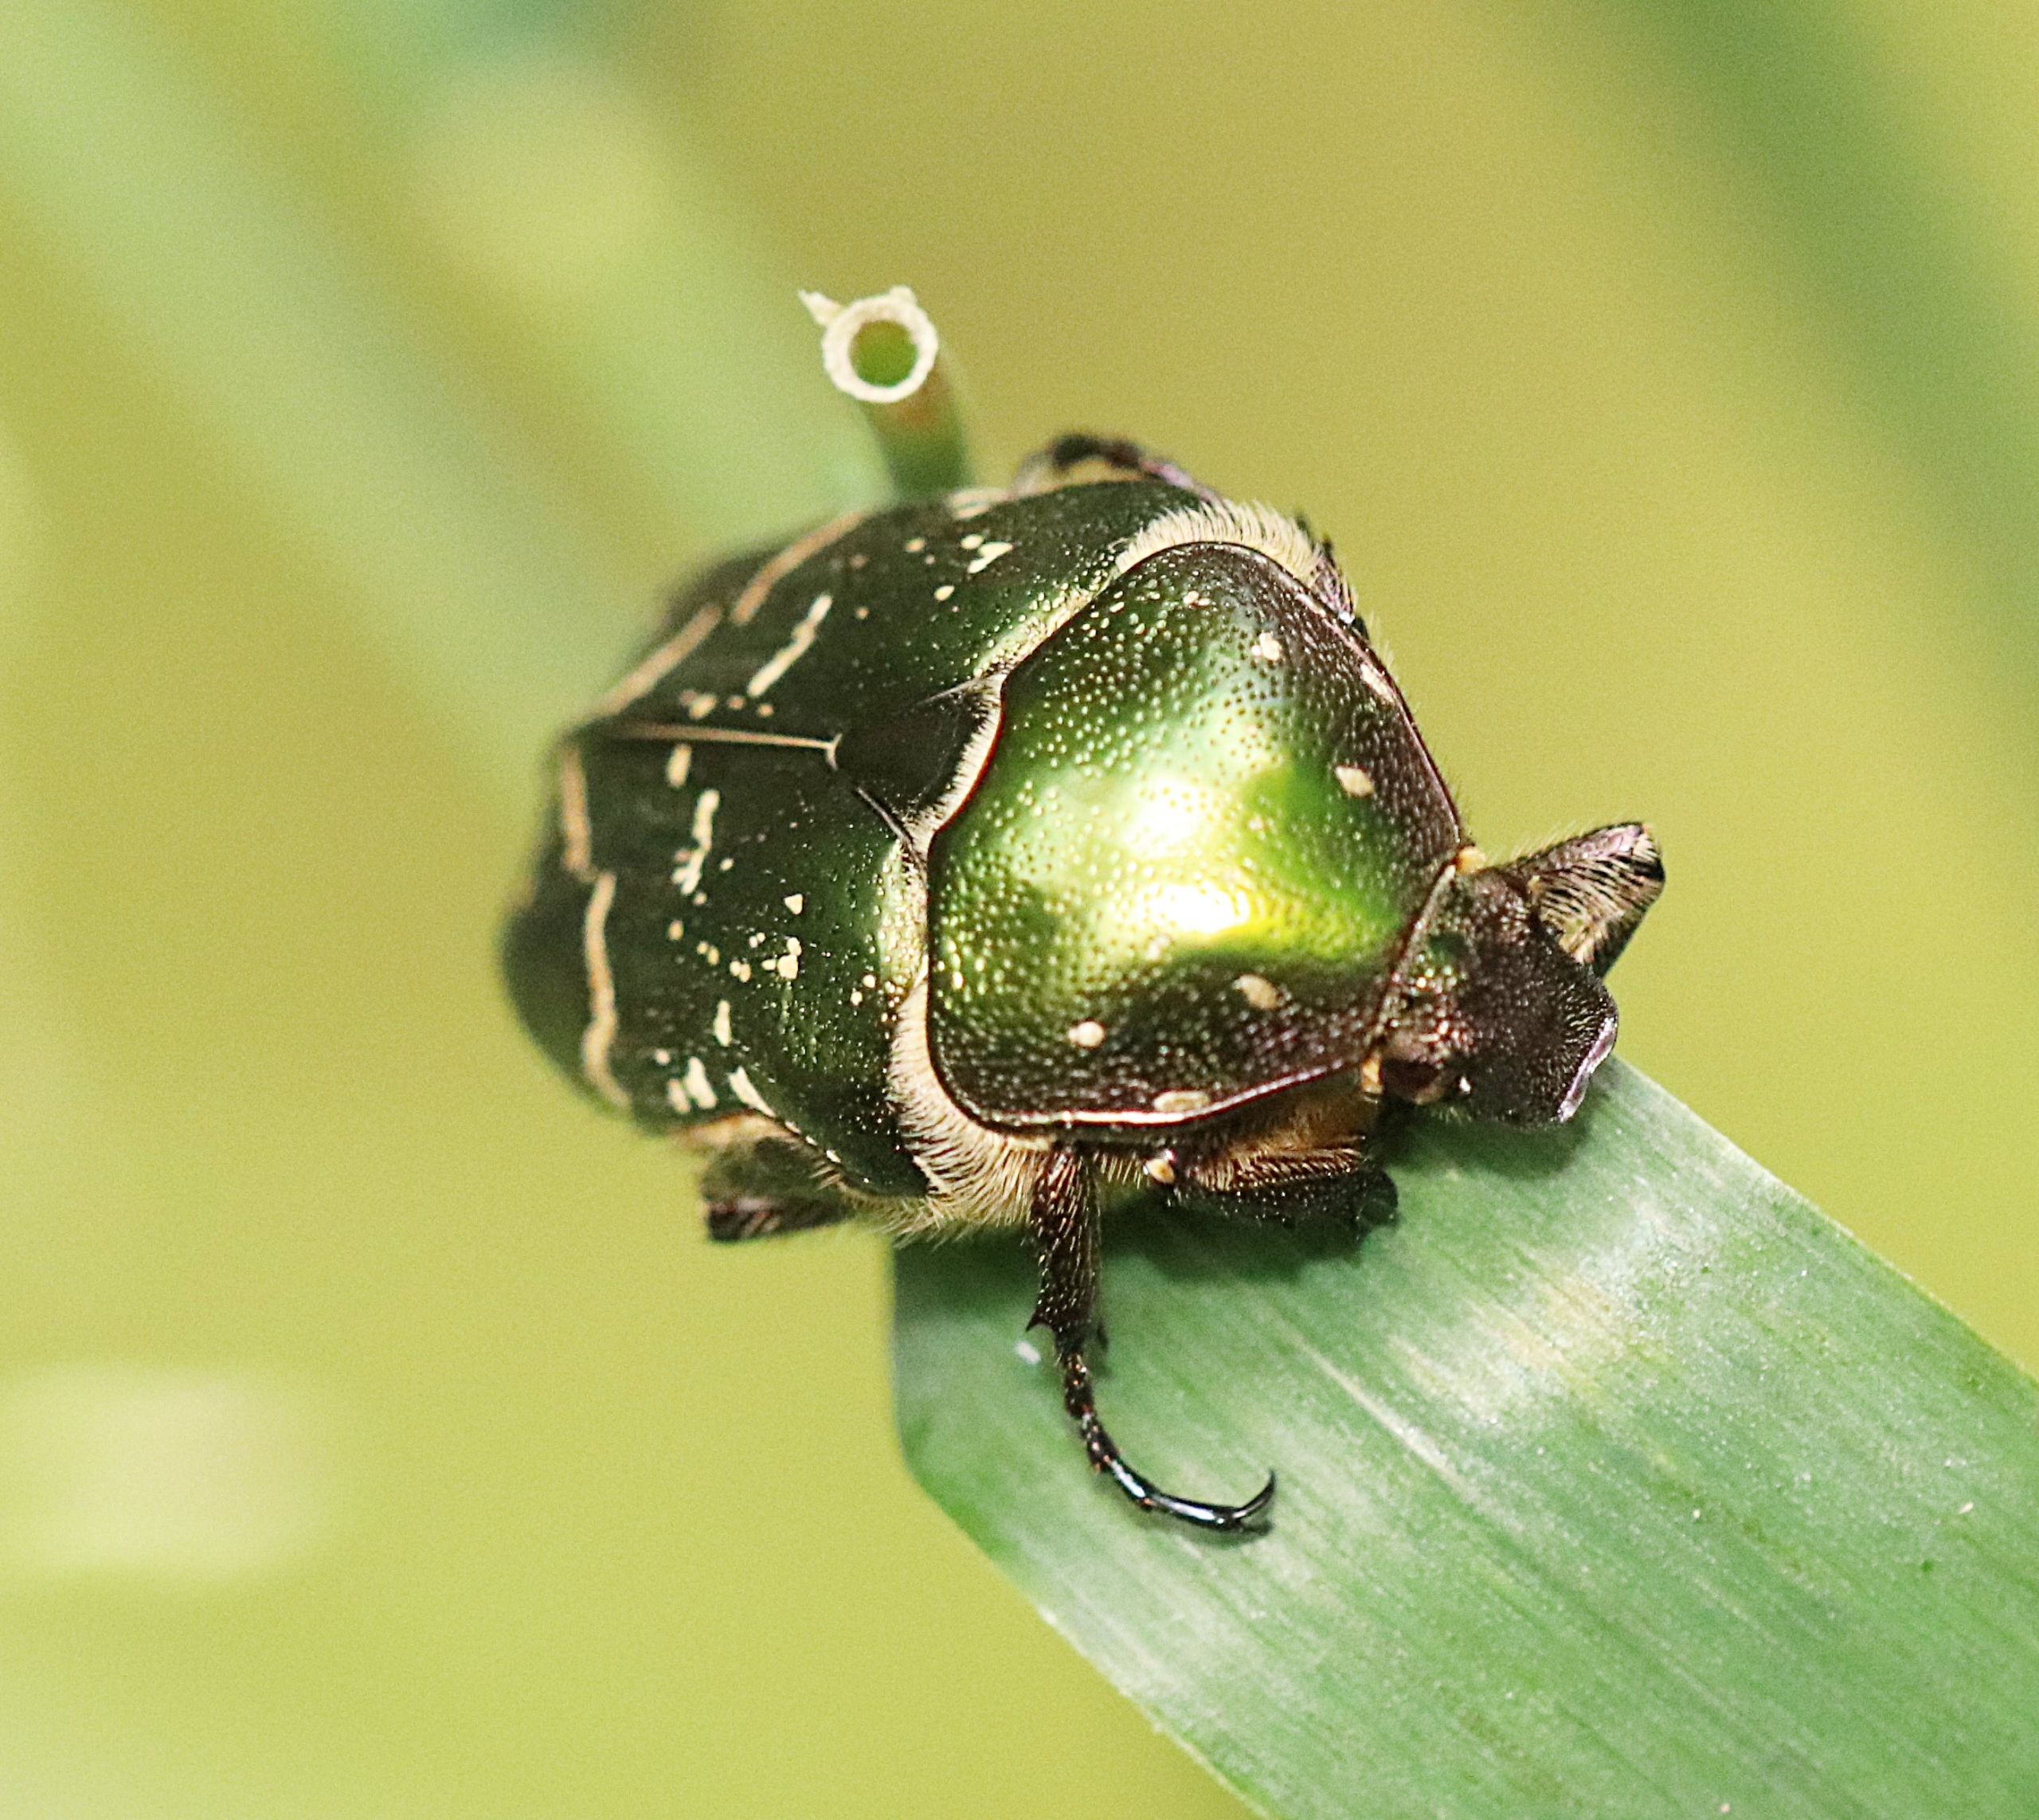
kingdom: Animalia
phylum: Arthropoda
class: Insecta
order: Coleoptera
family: Scarabaeidae
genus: Protaetia
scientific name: Protaetia cuprea
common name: Kobberguldbasse
